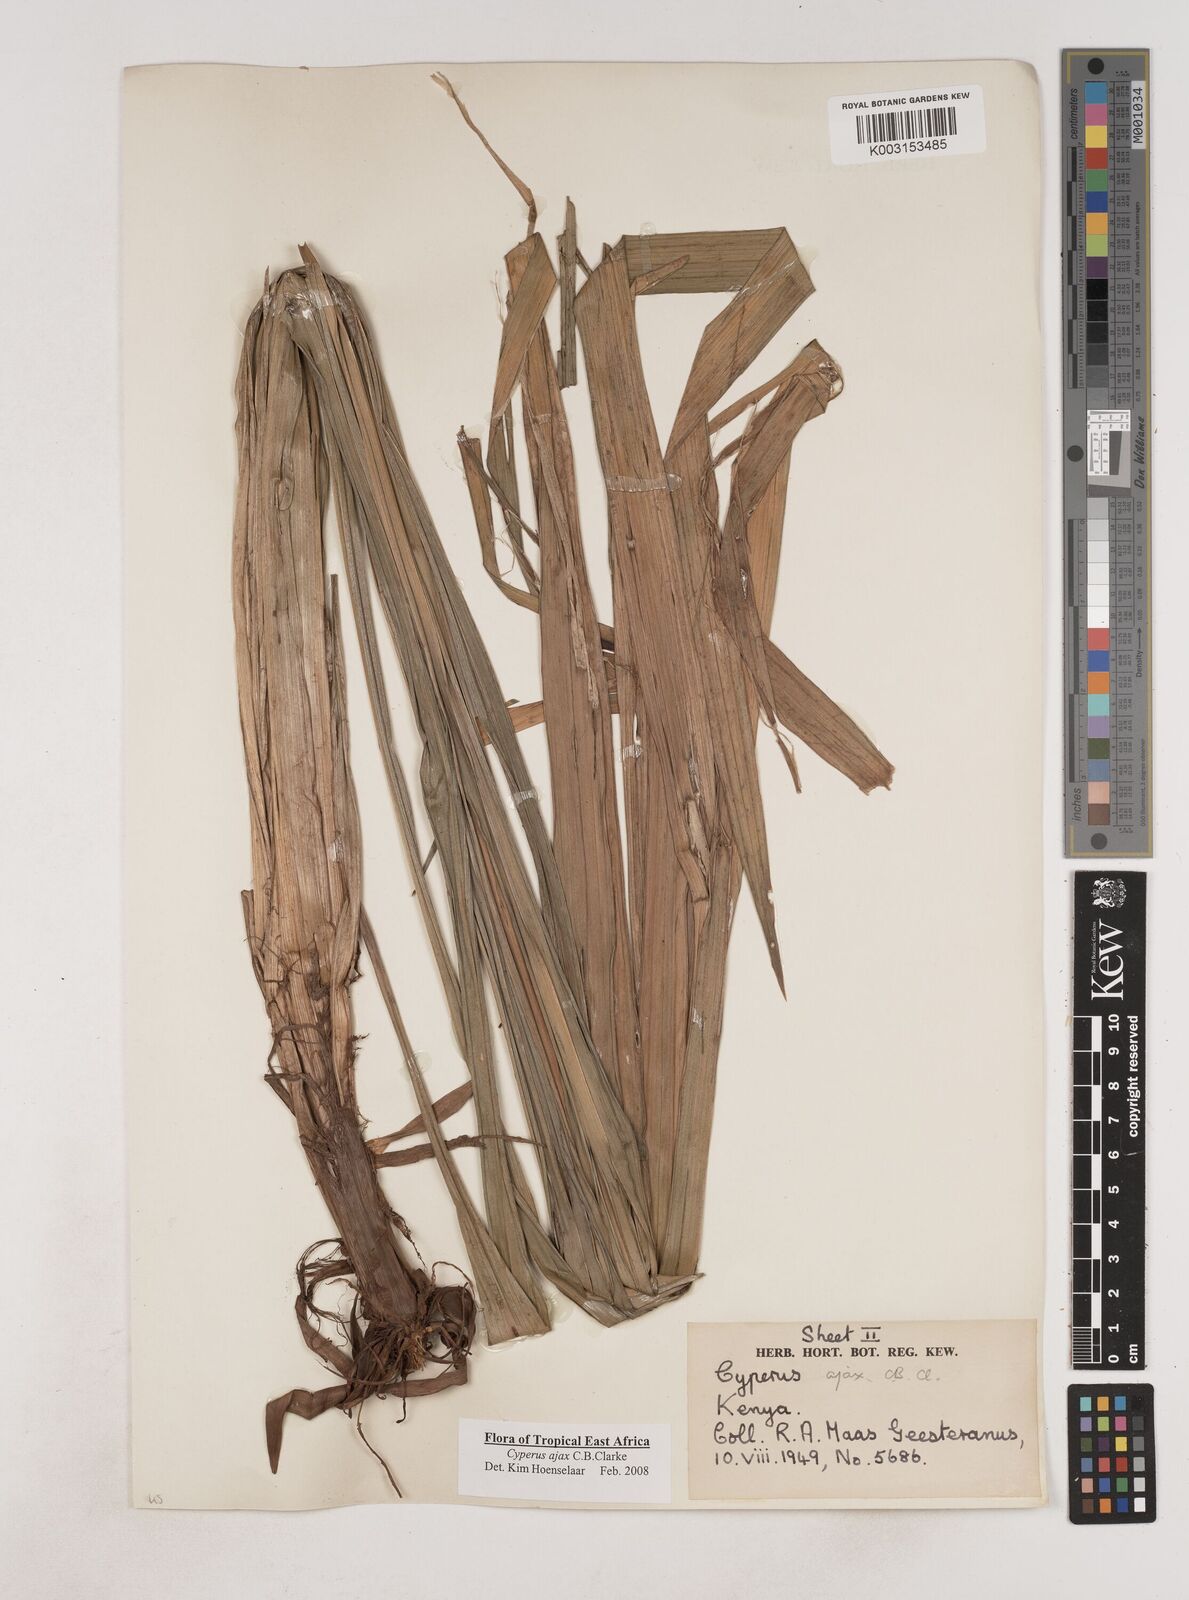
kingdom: Plantae
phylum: Tracheophyta
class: Liliopsida
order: Poales
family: Cyperaceae
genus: Cyperus
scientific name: Cyperus ajax
